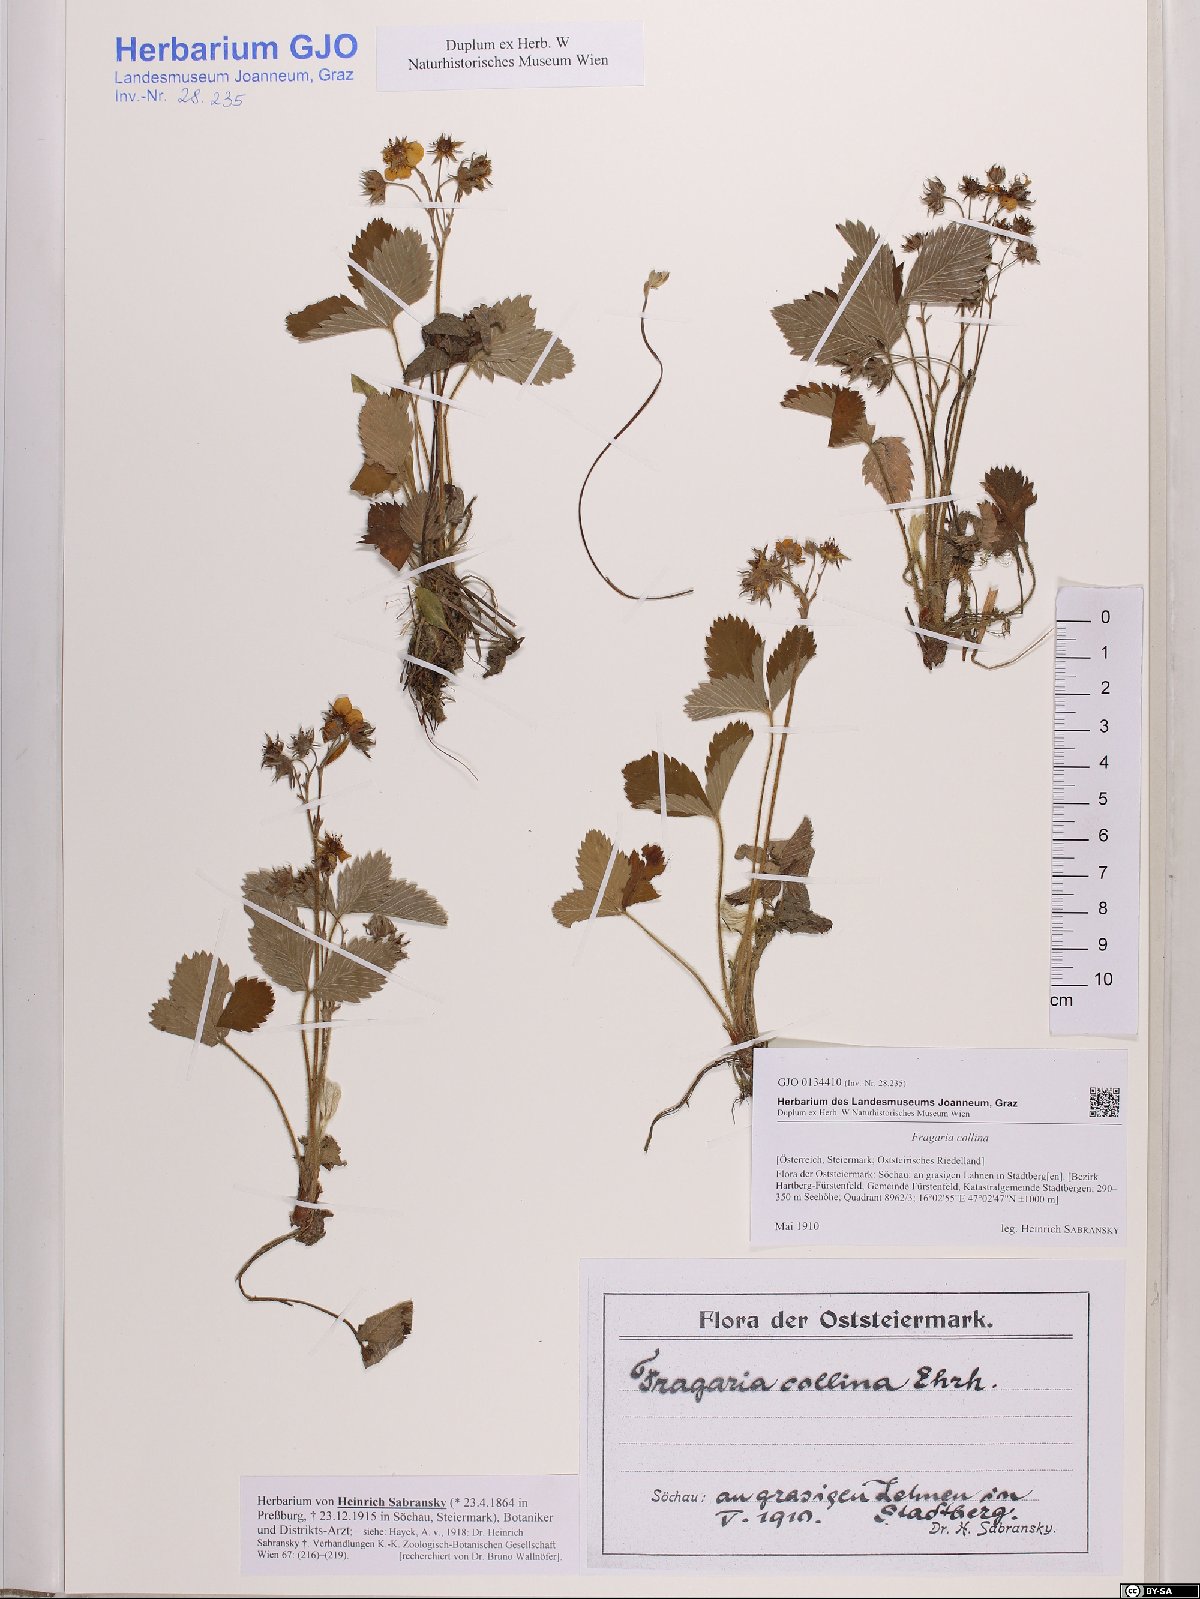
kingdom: Plantae
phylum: Tracheophyta
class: Magnoliopsida
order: Rosales
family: Rosaceae
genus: Fragaria
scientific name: Fragaria viridis
